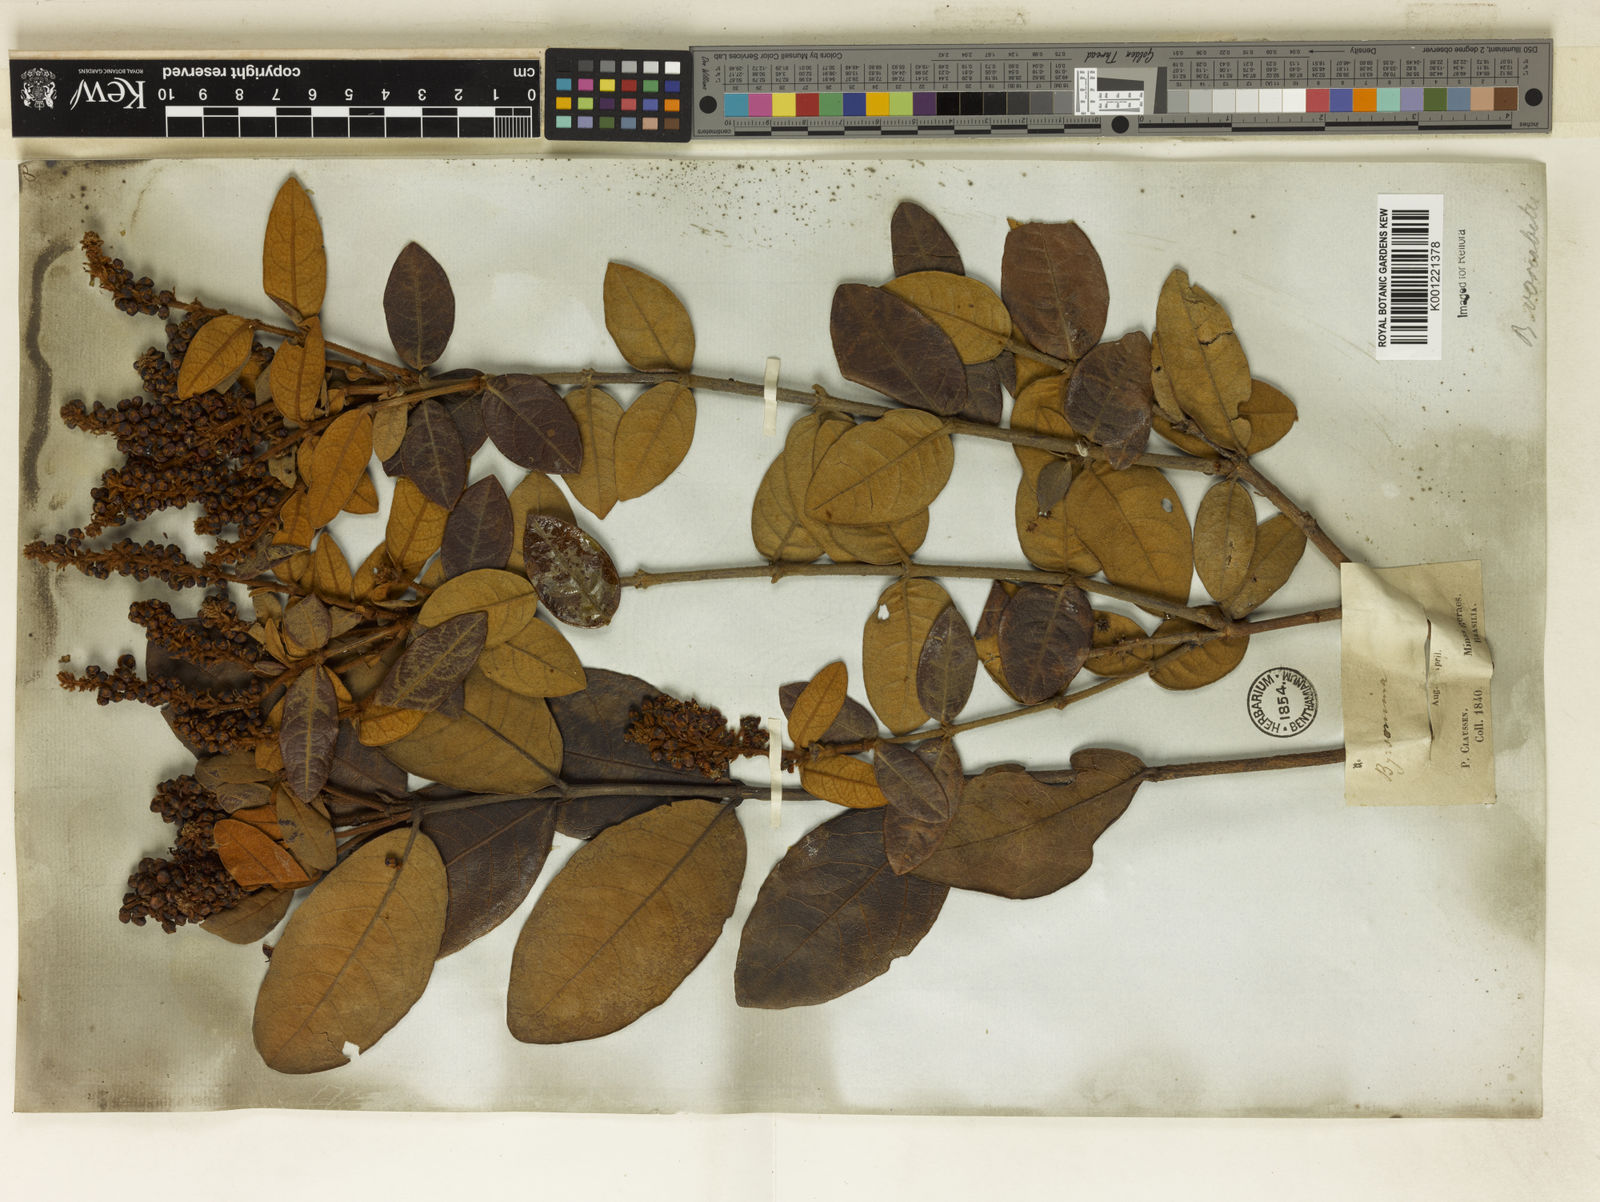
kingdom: Plantae
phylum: Tracheophyta
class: Magnoliopsida
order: Malpighiales
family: Malpighiaceae
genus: Byrsonima
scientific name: Byrsonima variabilis
